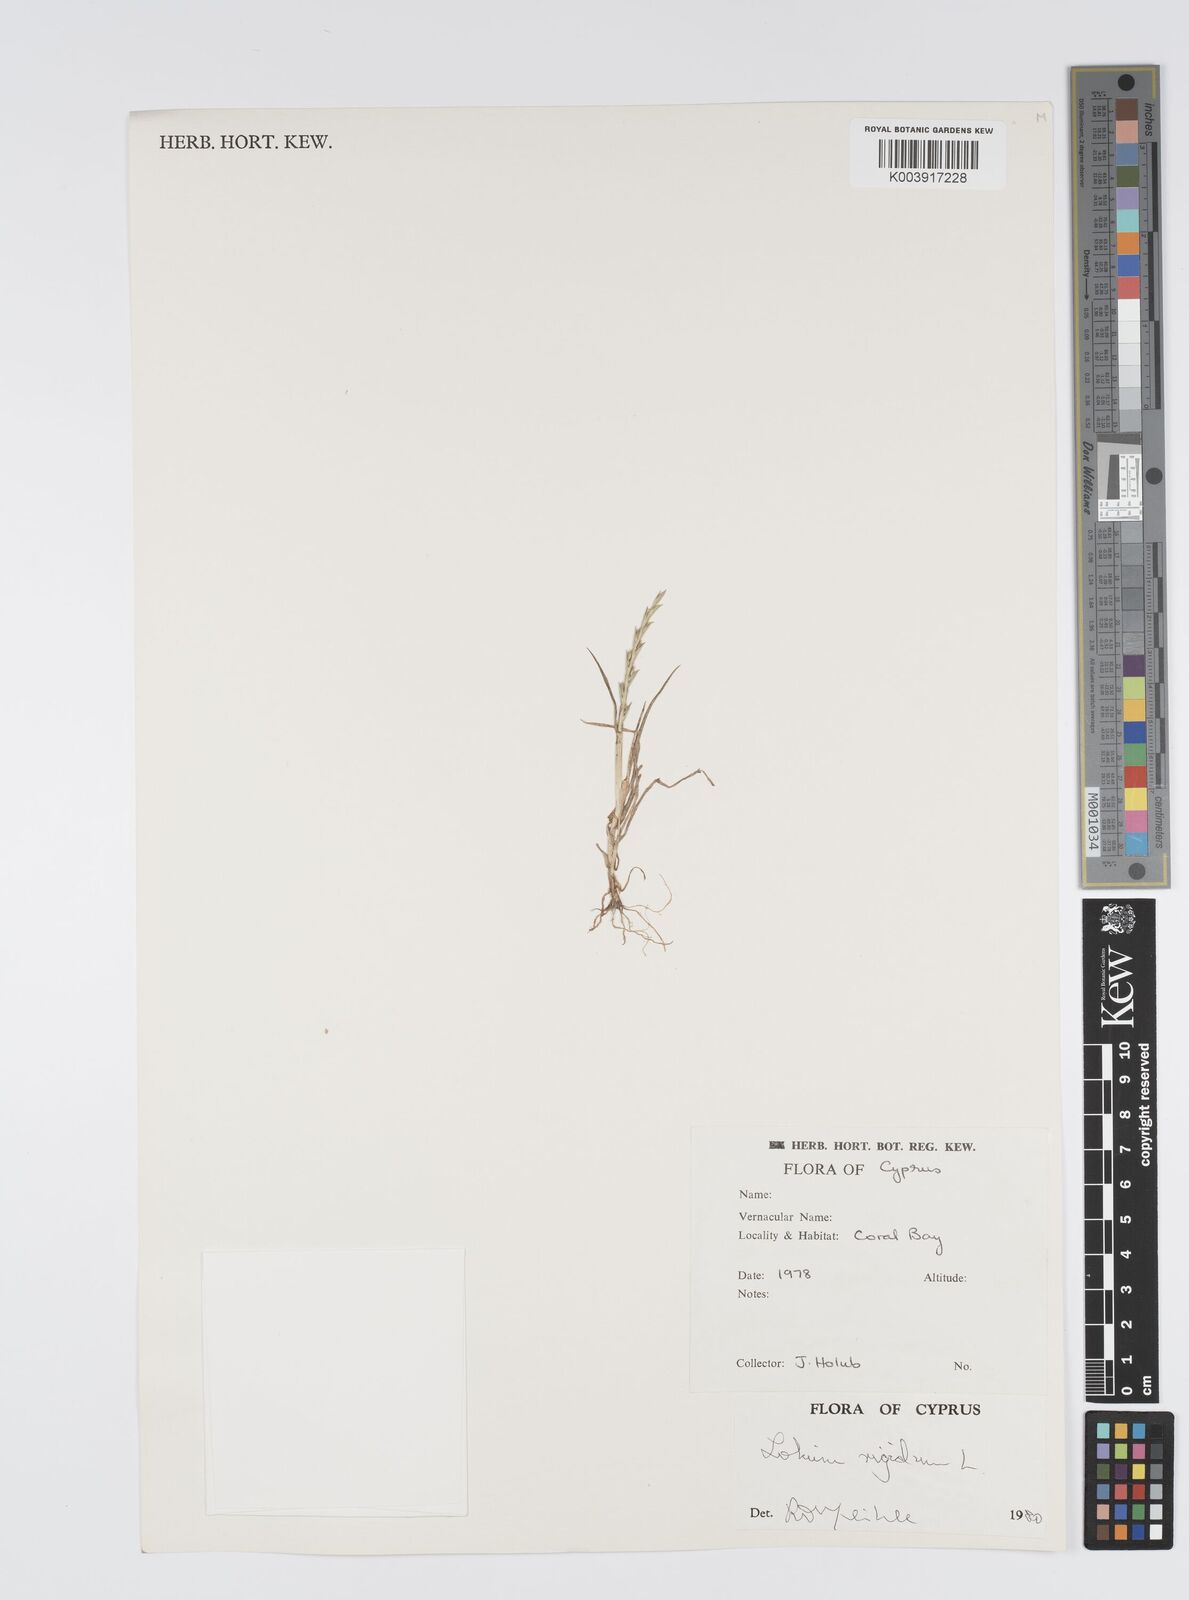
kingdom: Plantae
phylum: Tracheophyta
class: Liliopsida
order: Poales
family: Poaceae
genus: Lolium
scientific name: Lolium rigidum
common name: Wimmera ryegrass
